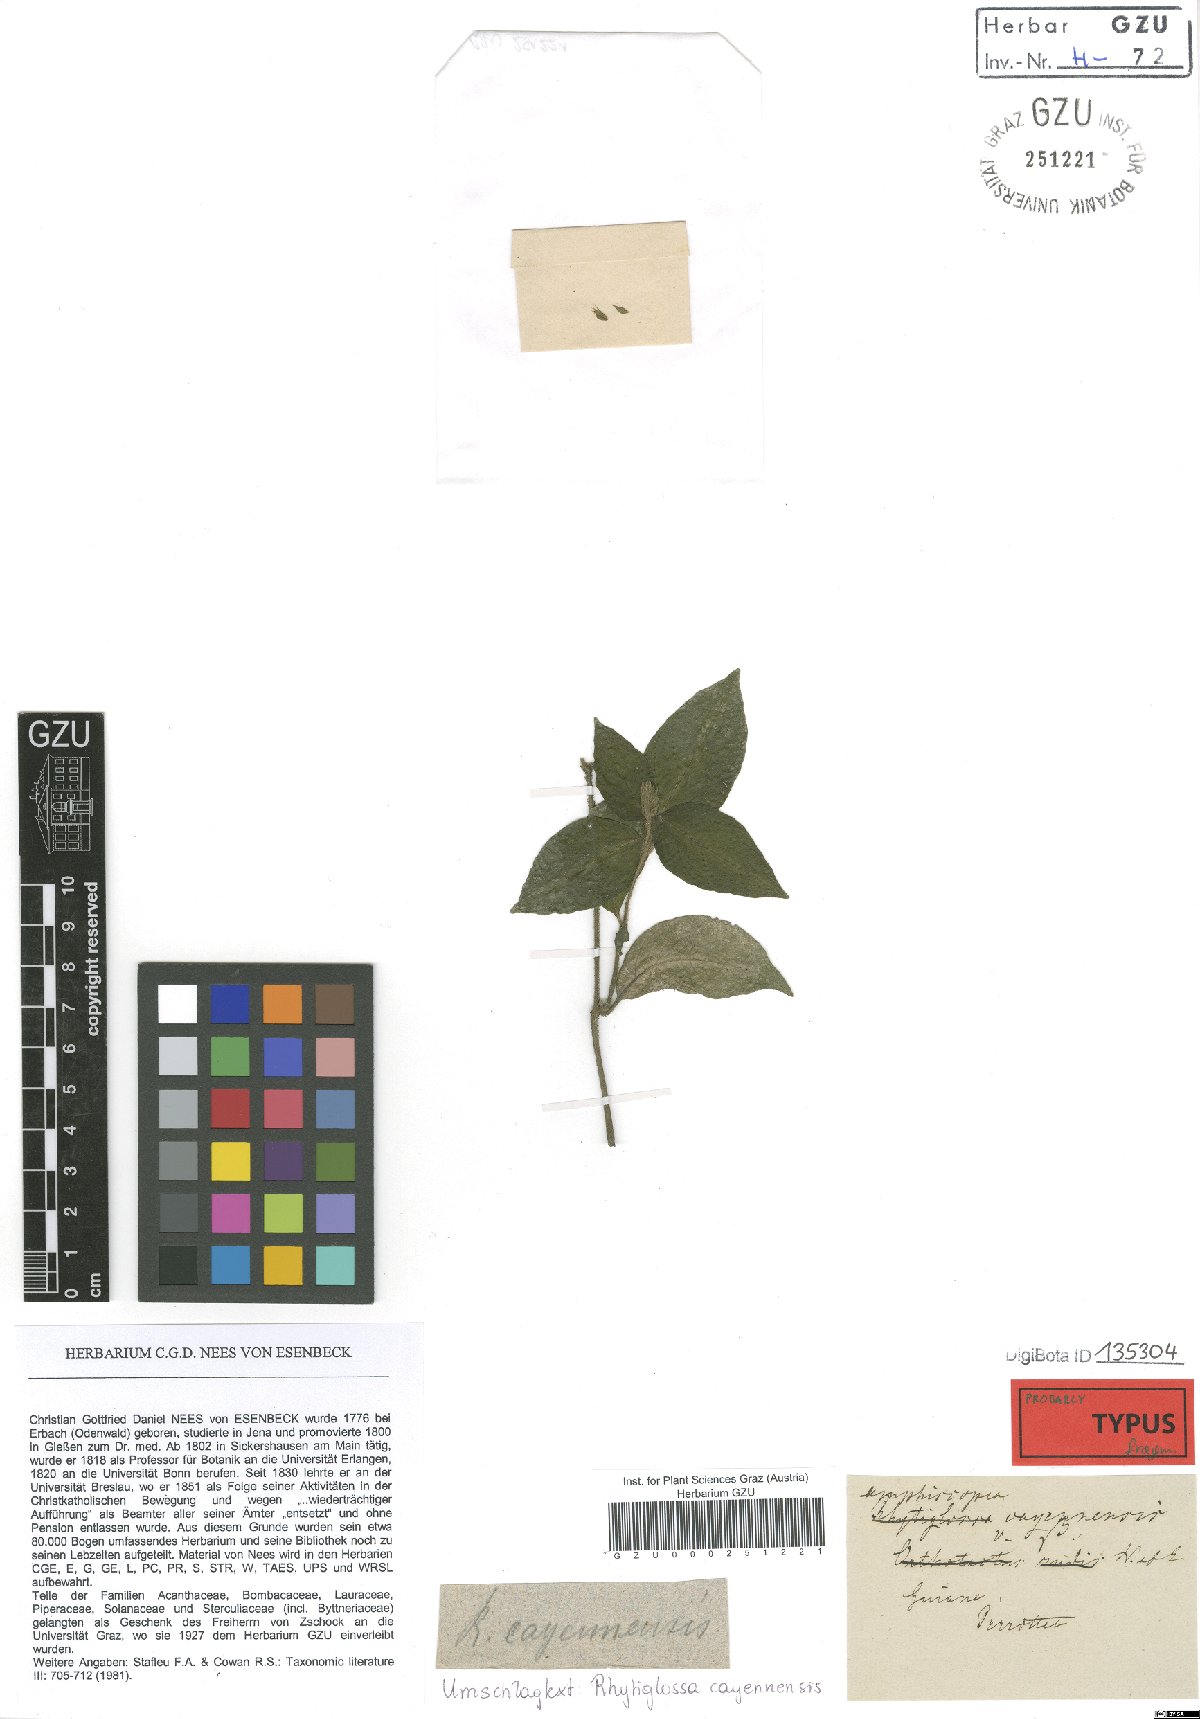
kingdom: Plantae
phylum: Tracheophyta
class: Magnoliopsida
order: Lamiales
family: Acanthaceae
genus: Dianthera
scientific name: Dianthera cayennensis
